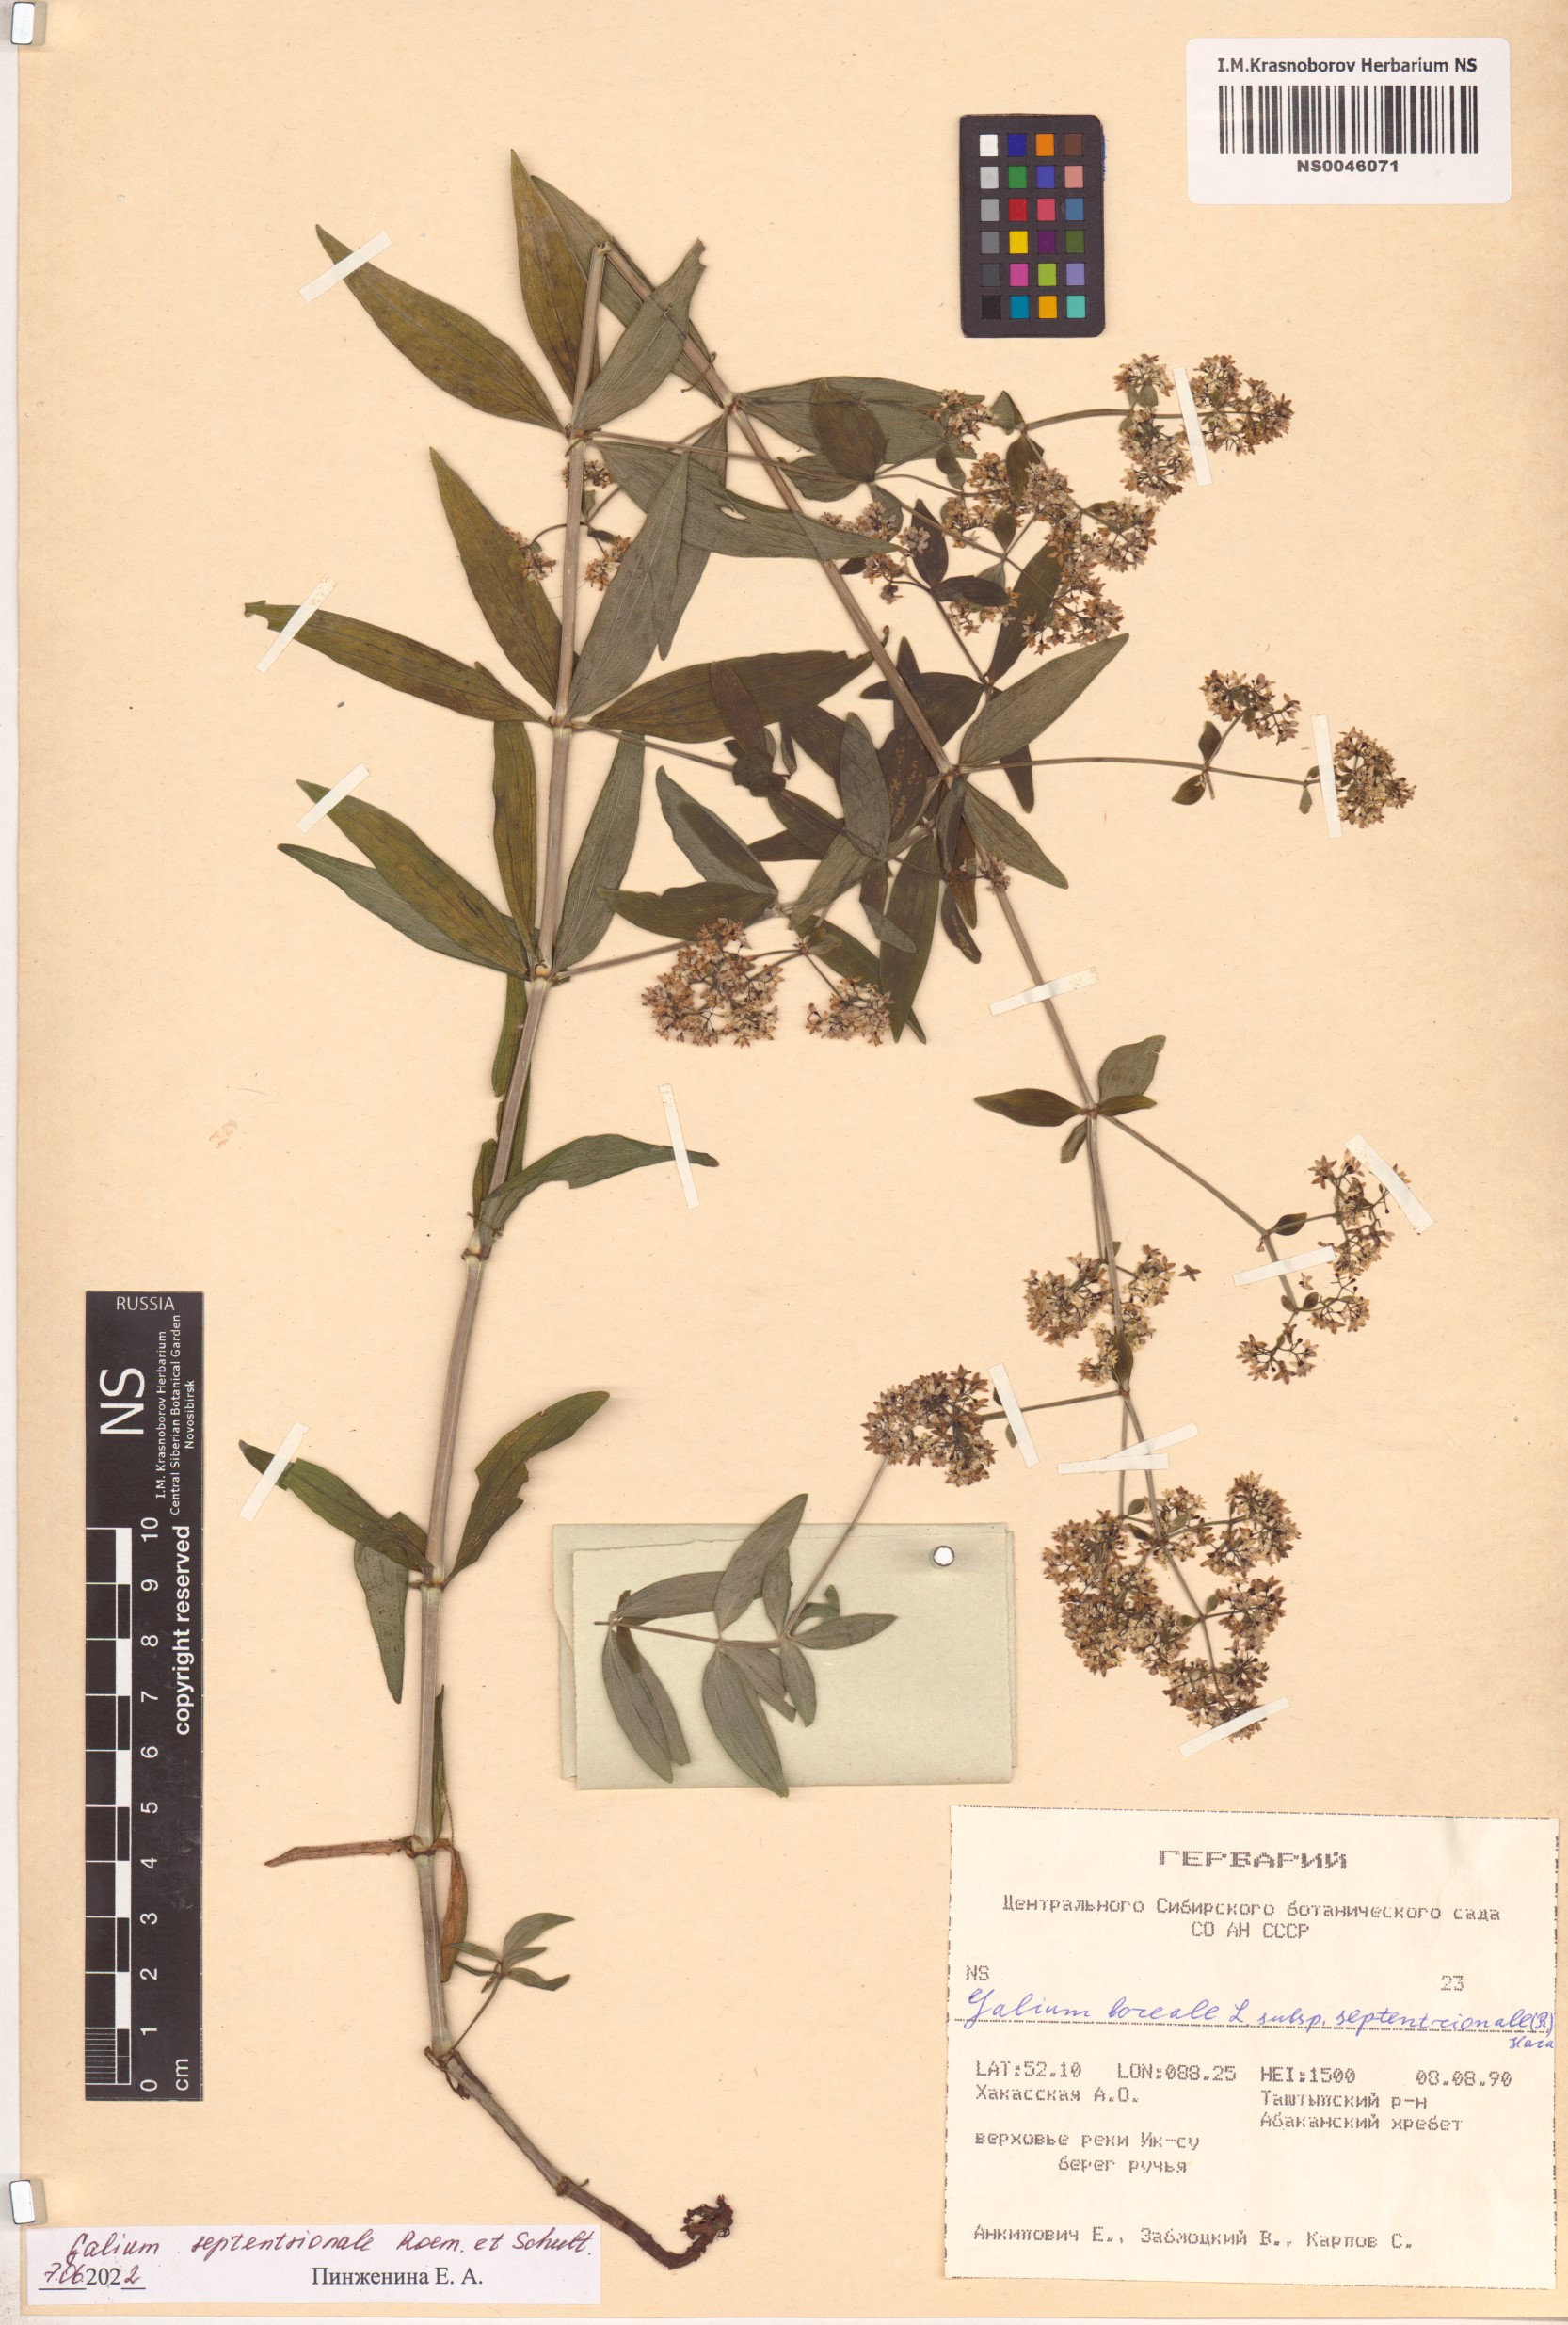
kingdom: Plantae
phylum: Tracheophyta
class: Magnoliopsida
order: Gentianales
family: Rubiaceae
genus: Galium
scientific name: Galium boreale
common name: Northern bedstraw
